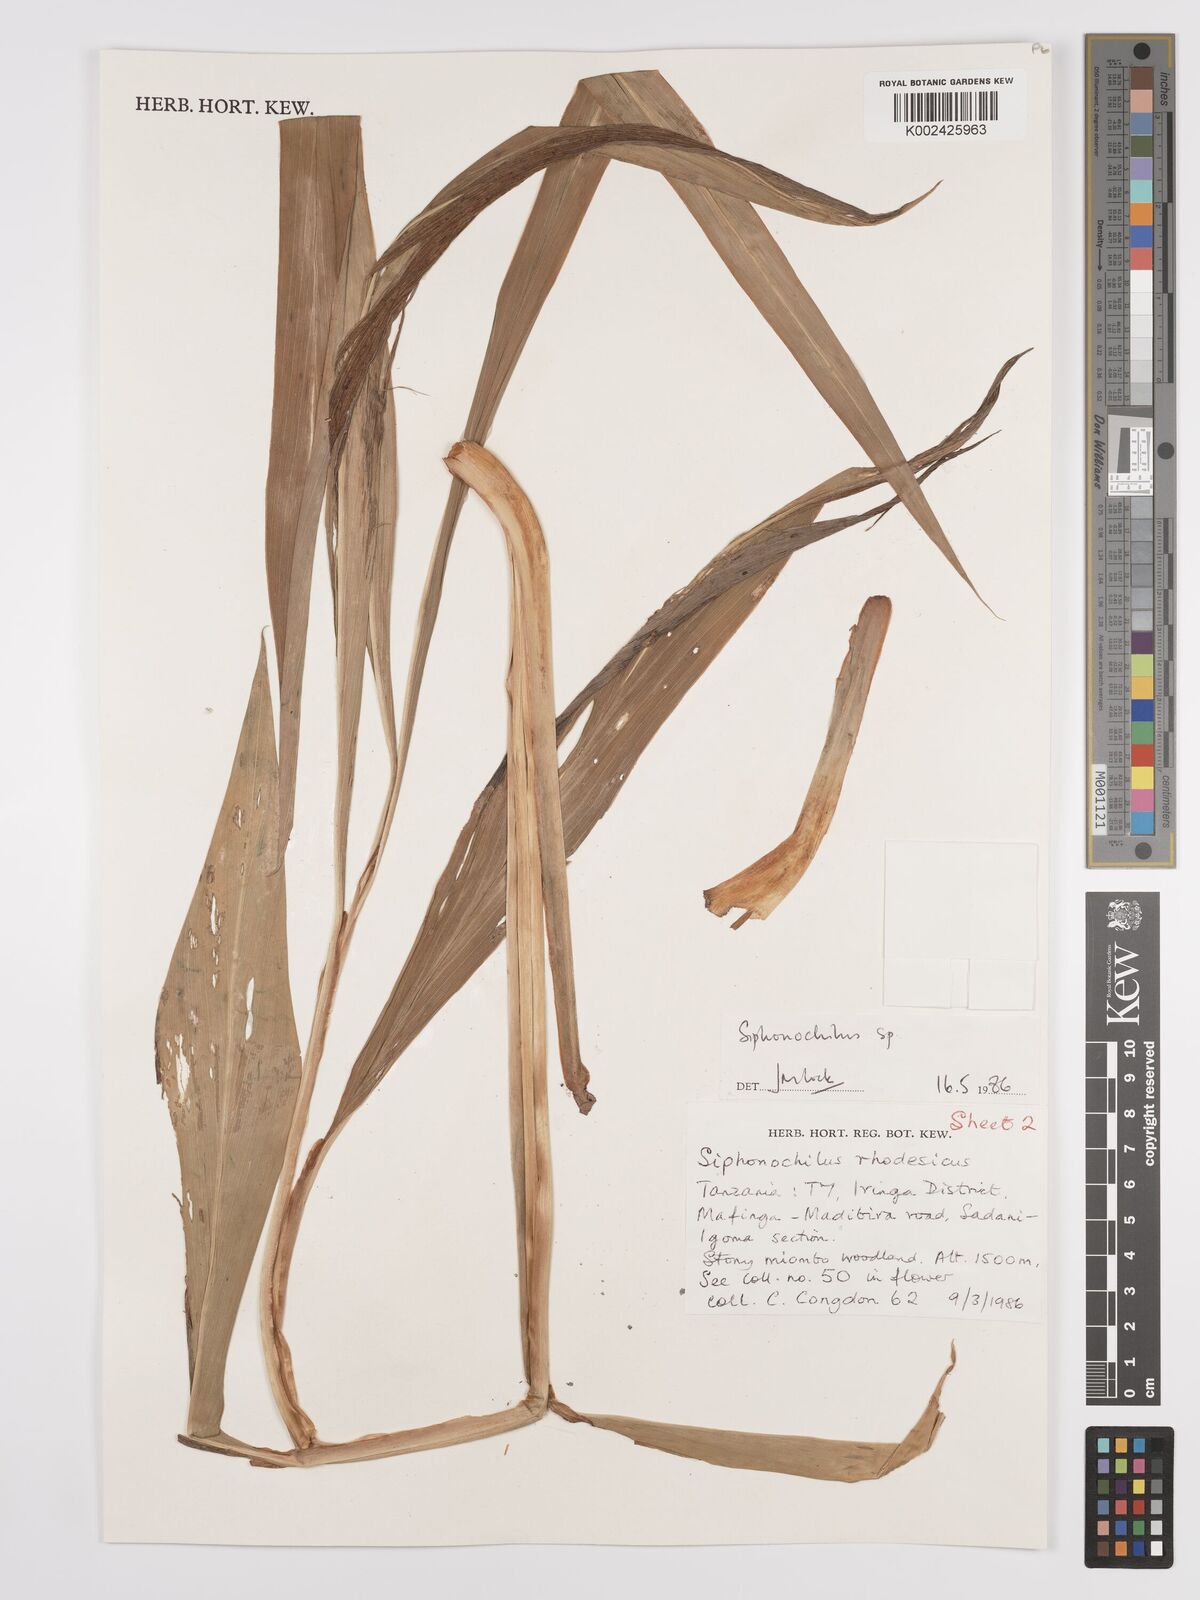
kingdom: Plantae
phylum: Tracheophyta
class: Liliopsida
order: Zingiberales
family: Zingiberaceae
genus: Siphonochilus
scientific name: Siphonochilus
